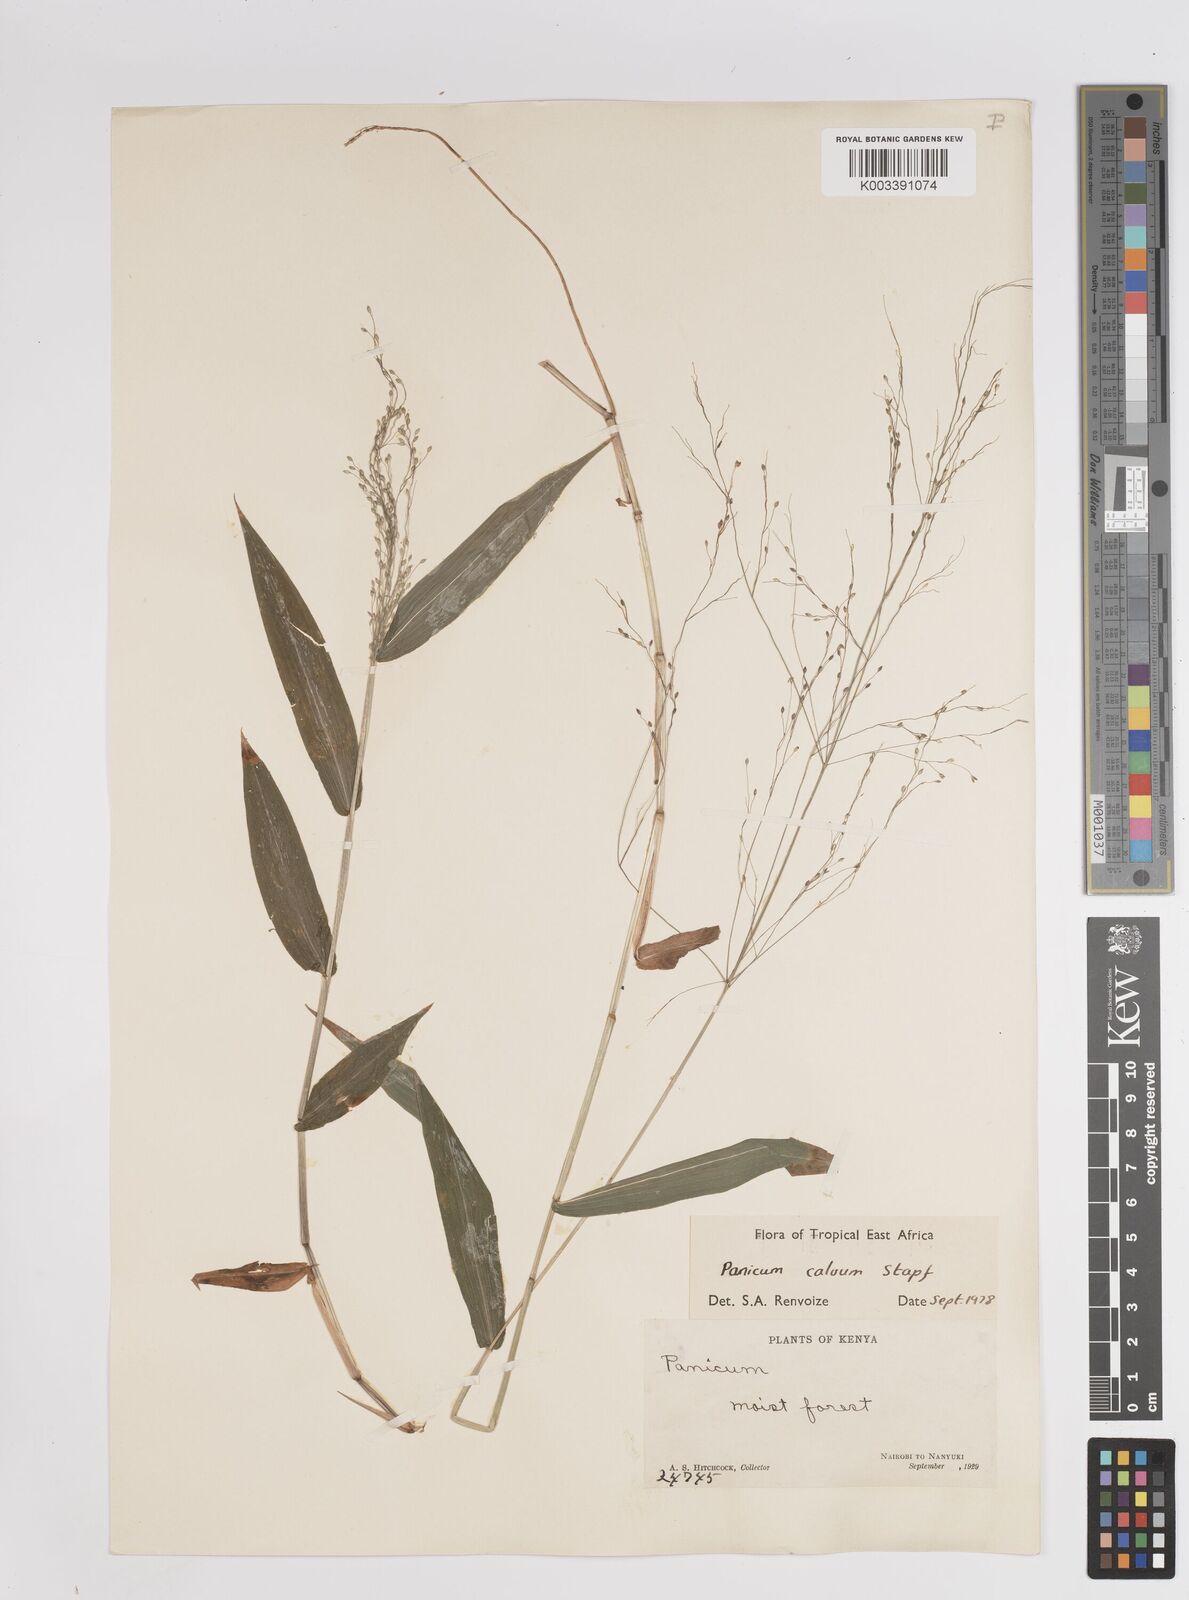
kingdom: Plantae
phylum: Tracheophyta
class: Liliopsida
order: Poales
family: Poaceae
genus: Panicum
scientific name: Panicum calvum
